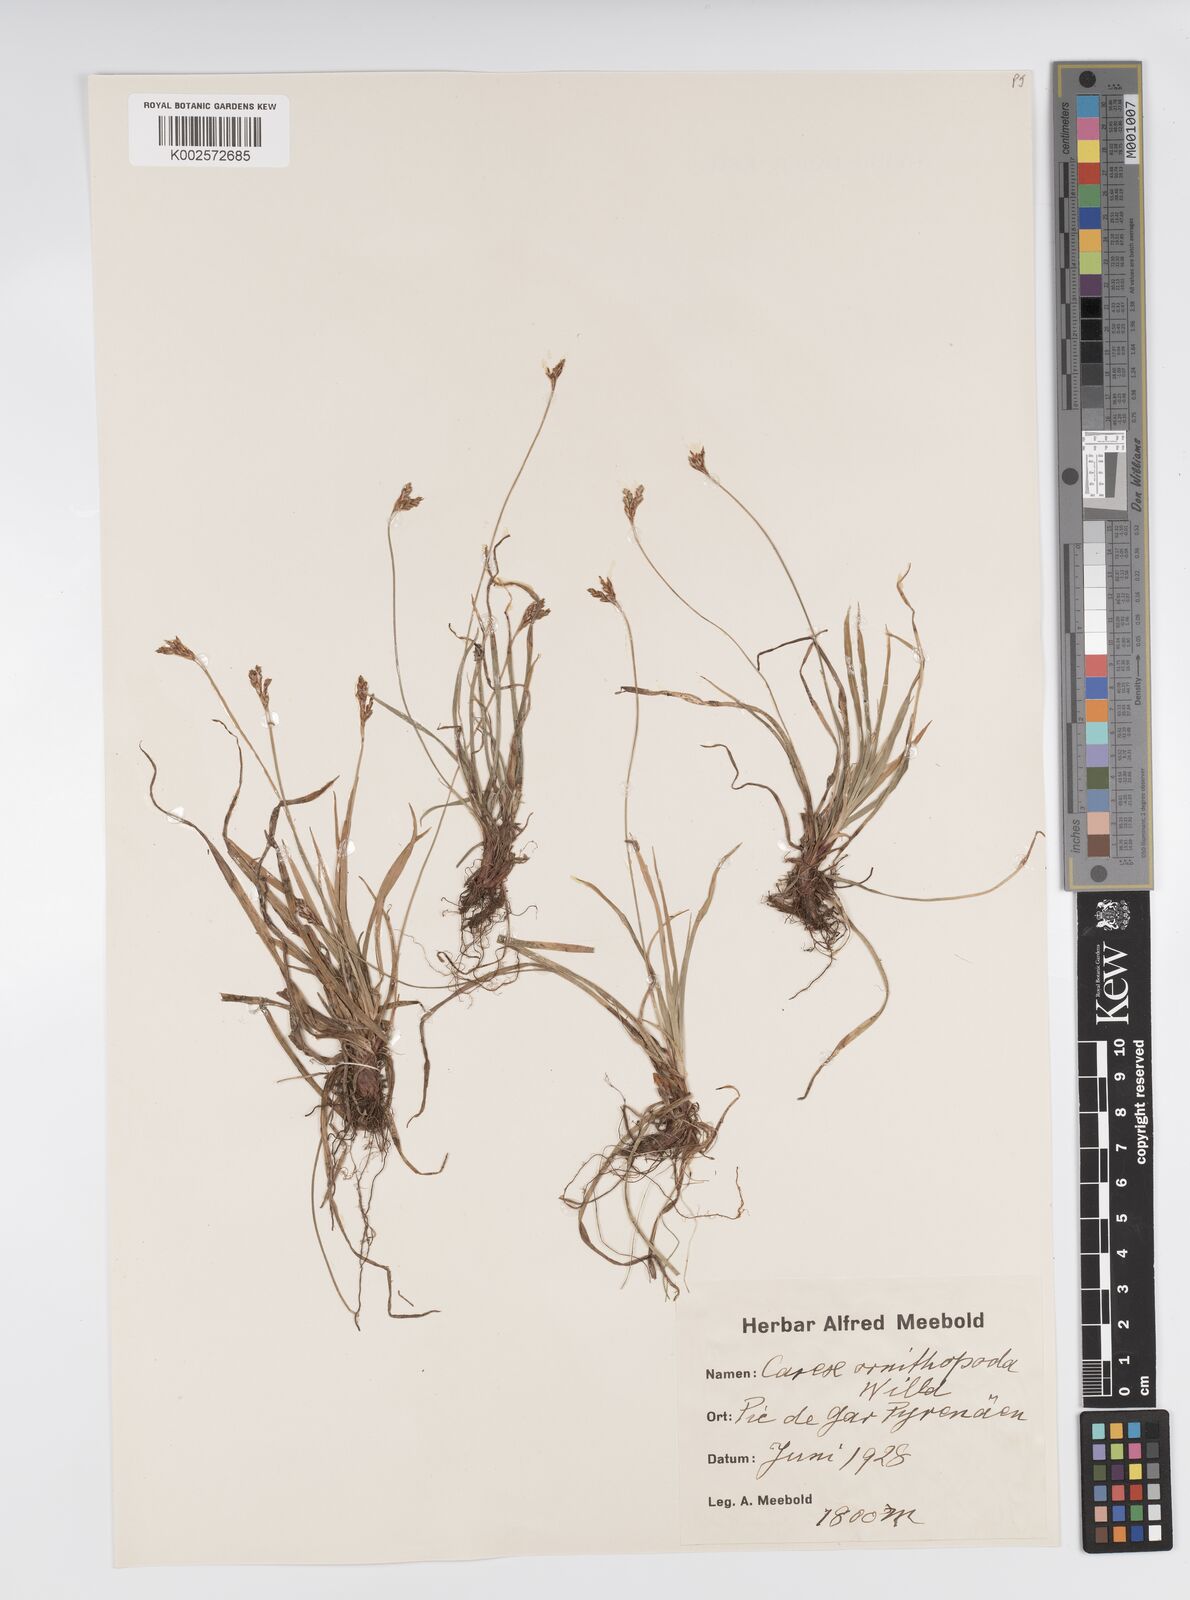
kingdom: Plantae
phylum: Tracheophyta
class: Liliopsida
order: Poales
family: Cyperaceae
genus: Carex
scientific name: Carex ornithopoda
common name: Bird's-foot sedge
